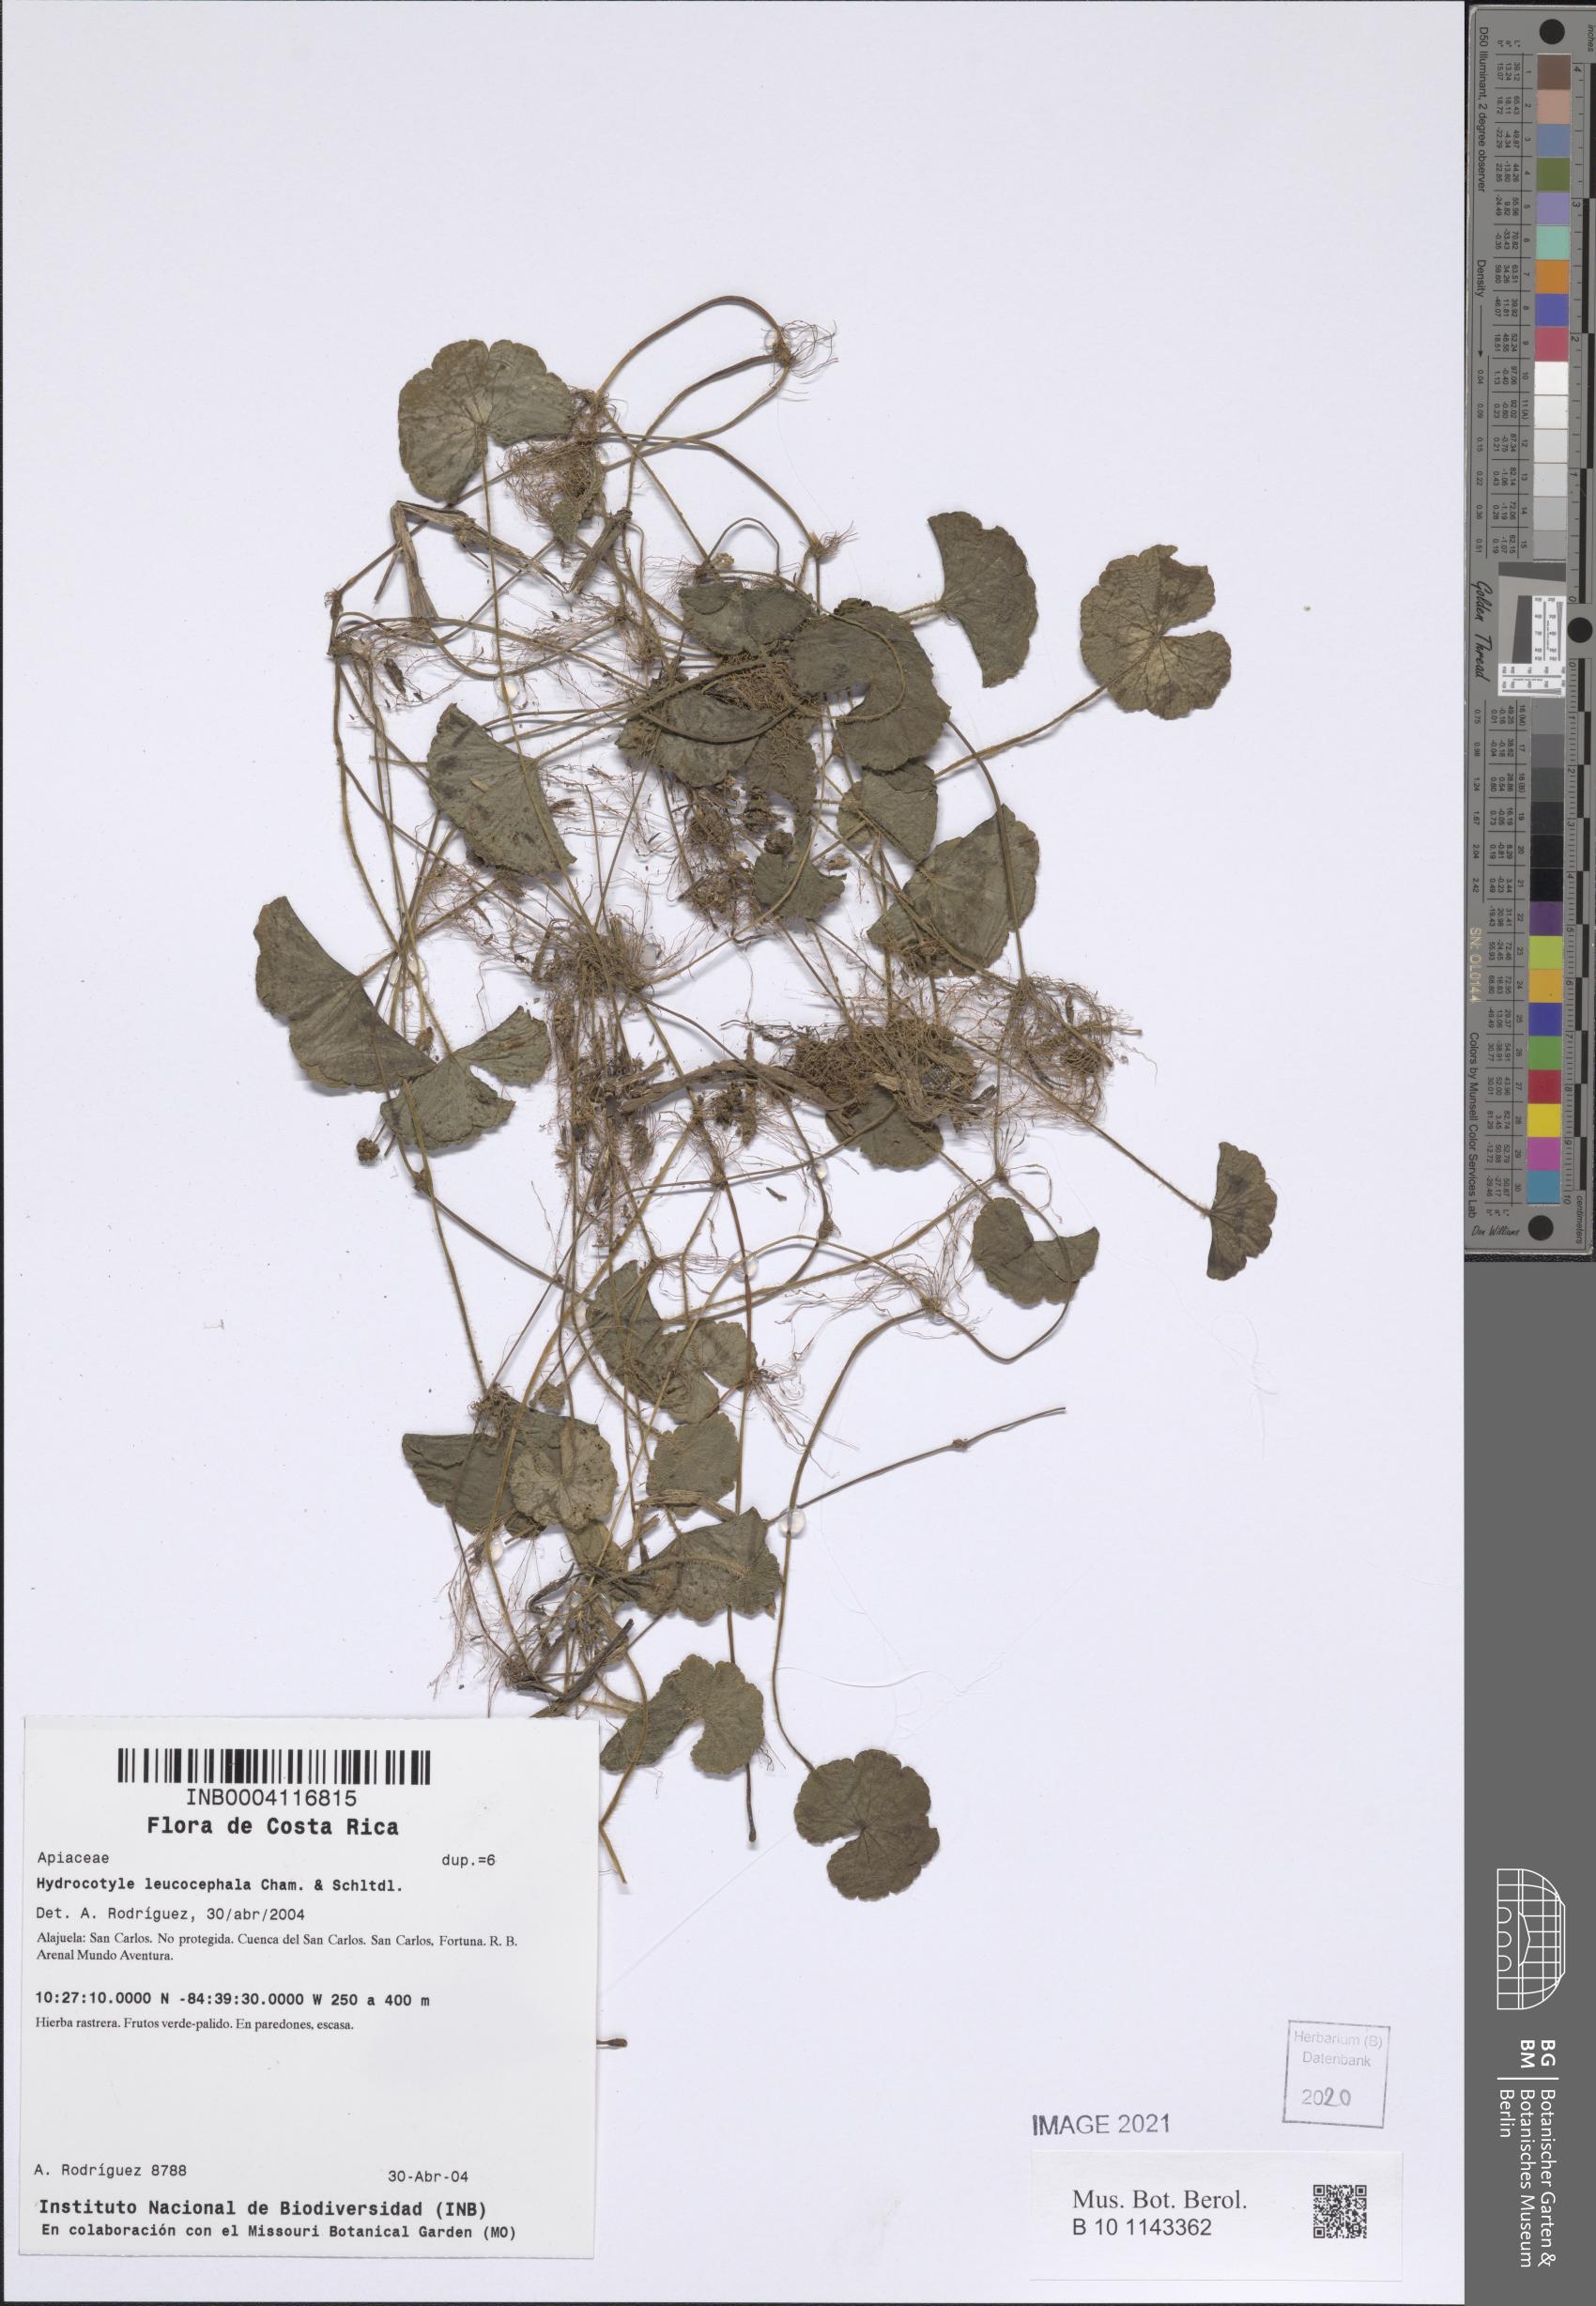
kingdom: Plantae
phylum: Tracheophyta
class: Magnoliopsida
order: Apiales
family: Araliaceae
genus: Hydrocotyle
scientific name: Hydrocotyle leucocephala
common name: Brazilian pennywort
